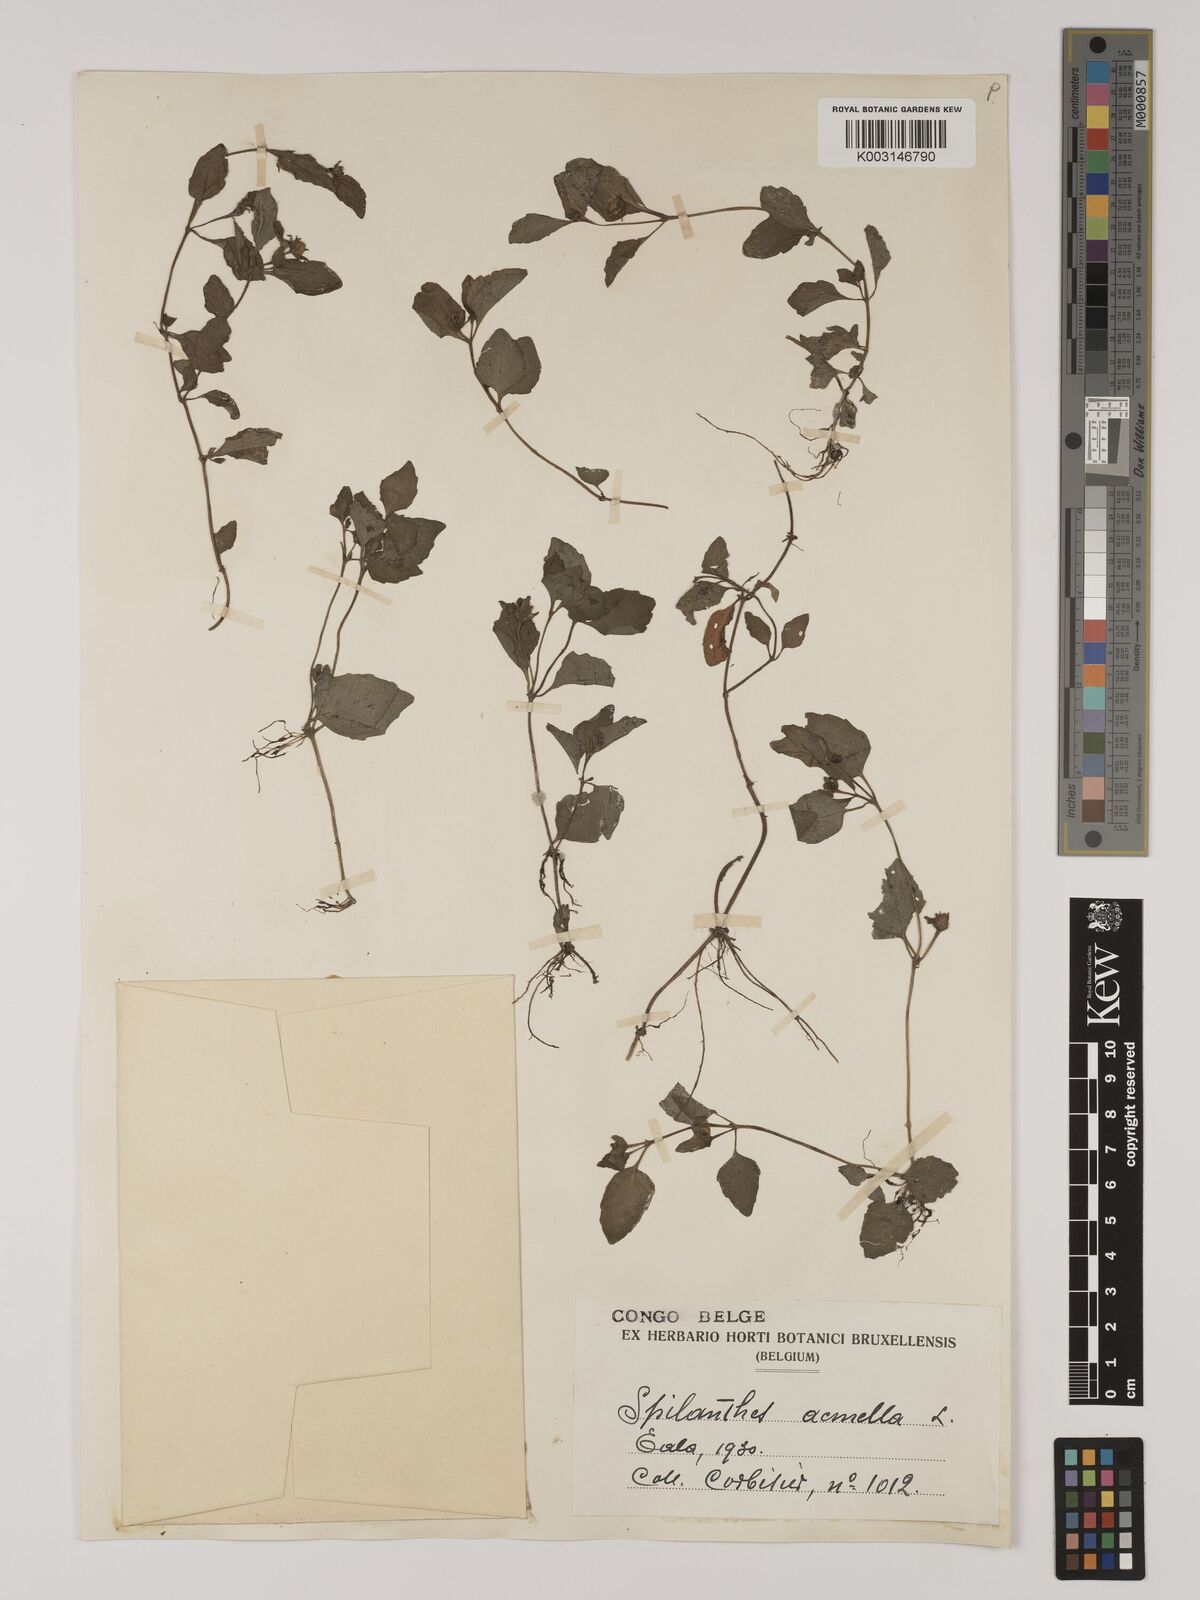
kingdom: Plantae
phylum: Tracheophyta
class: Magnoliopsida
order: Asterales
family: Asteraceae
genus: Acmella
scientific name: Acmella caulirhiza
